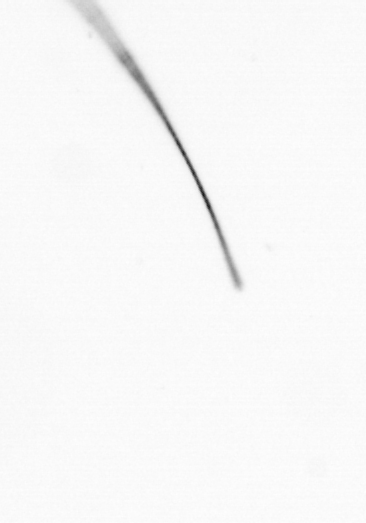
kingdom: Chromista
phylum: Ochrophyta
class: Bacillariophyceae
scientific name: Bacillariophyceae
